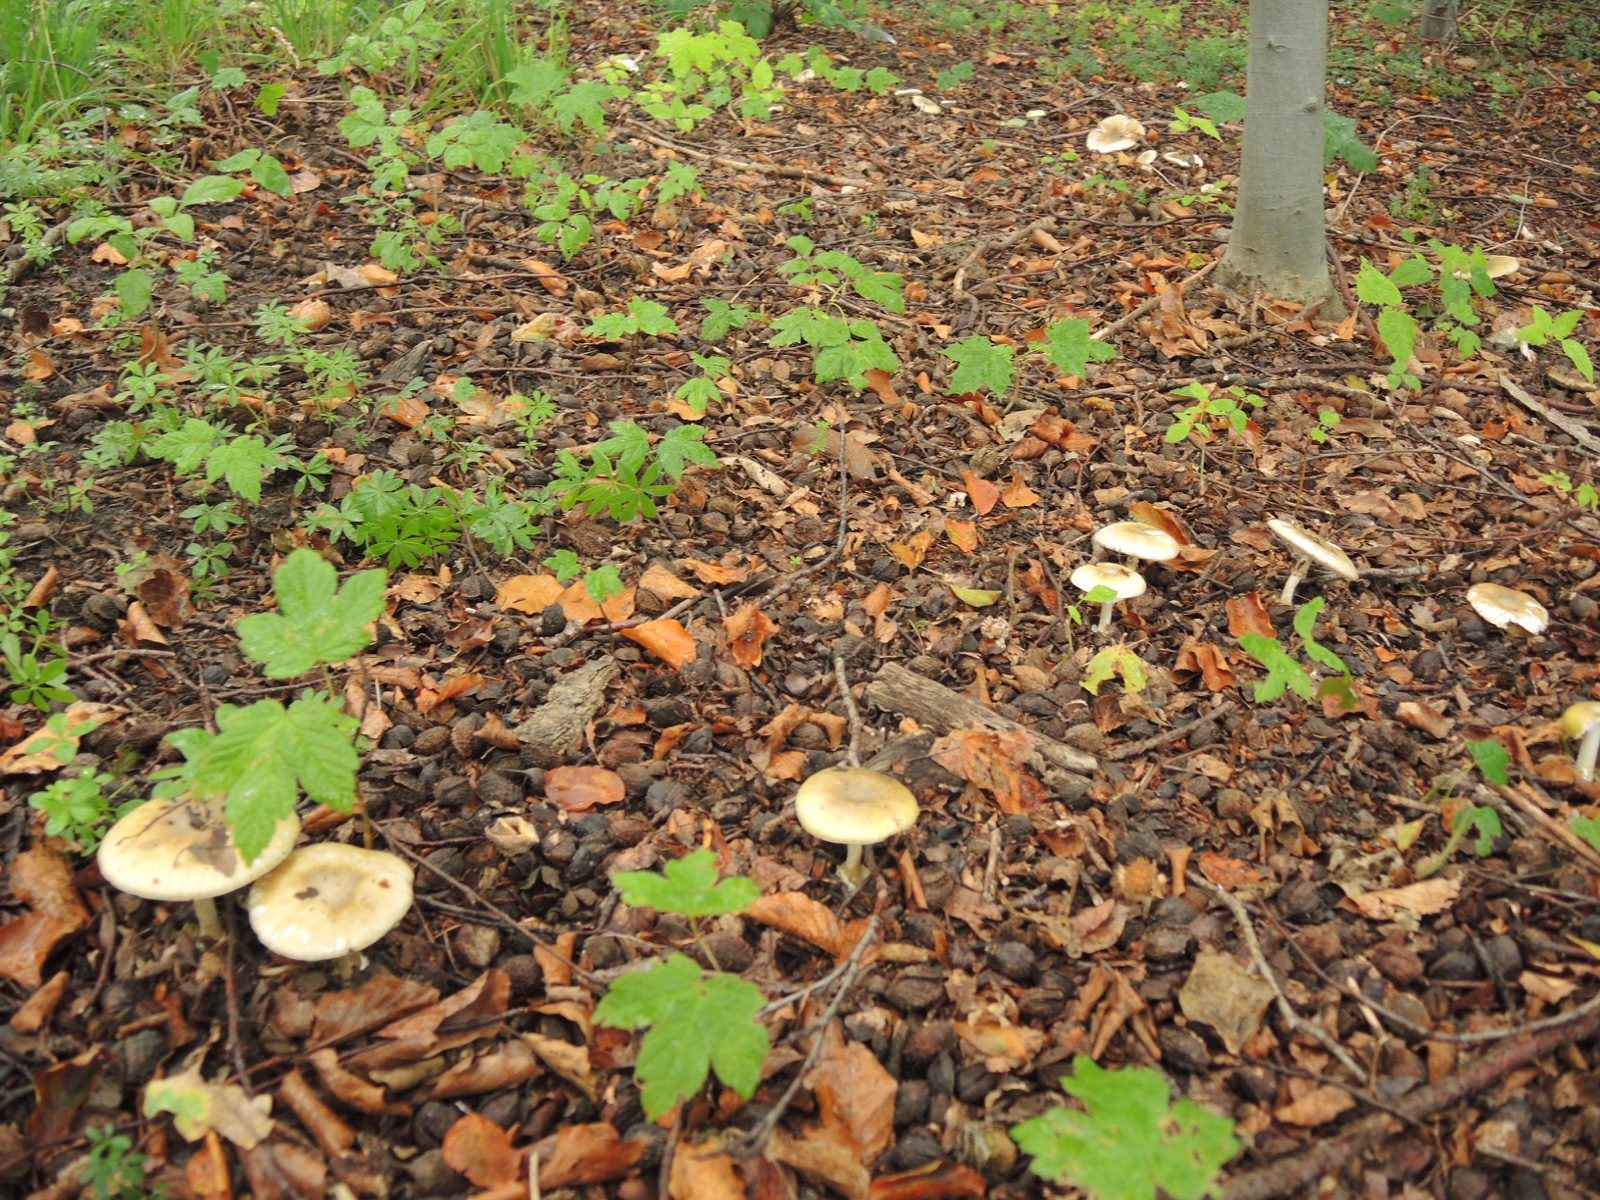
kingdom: Fungi
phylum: Basidiomycota
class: Agaricomycetes
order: Agaricales
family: Amanitaceae
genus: Amanita
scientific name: Amanita phalloides
